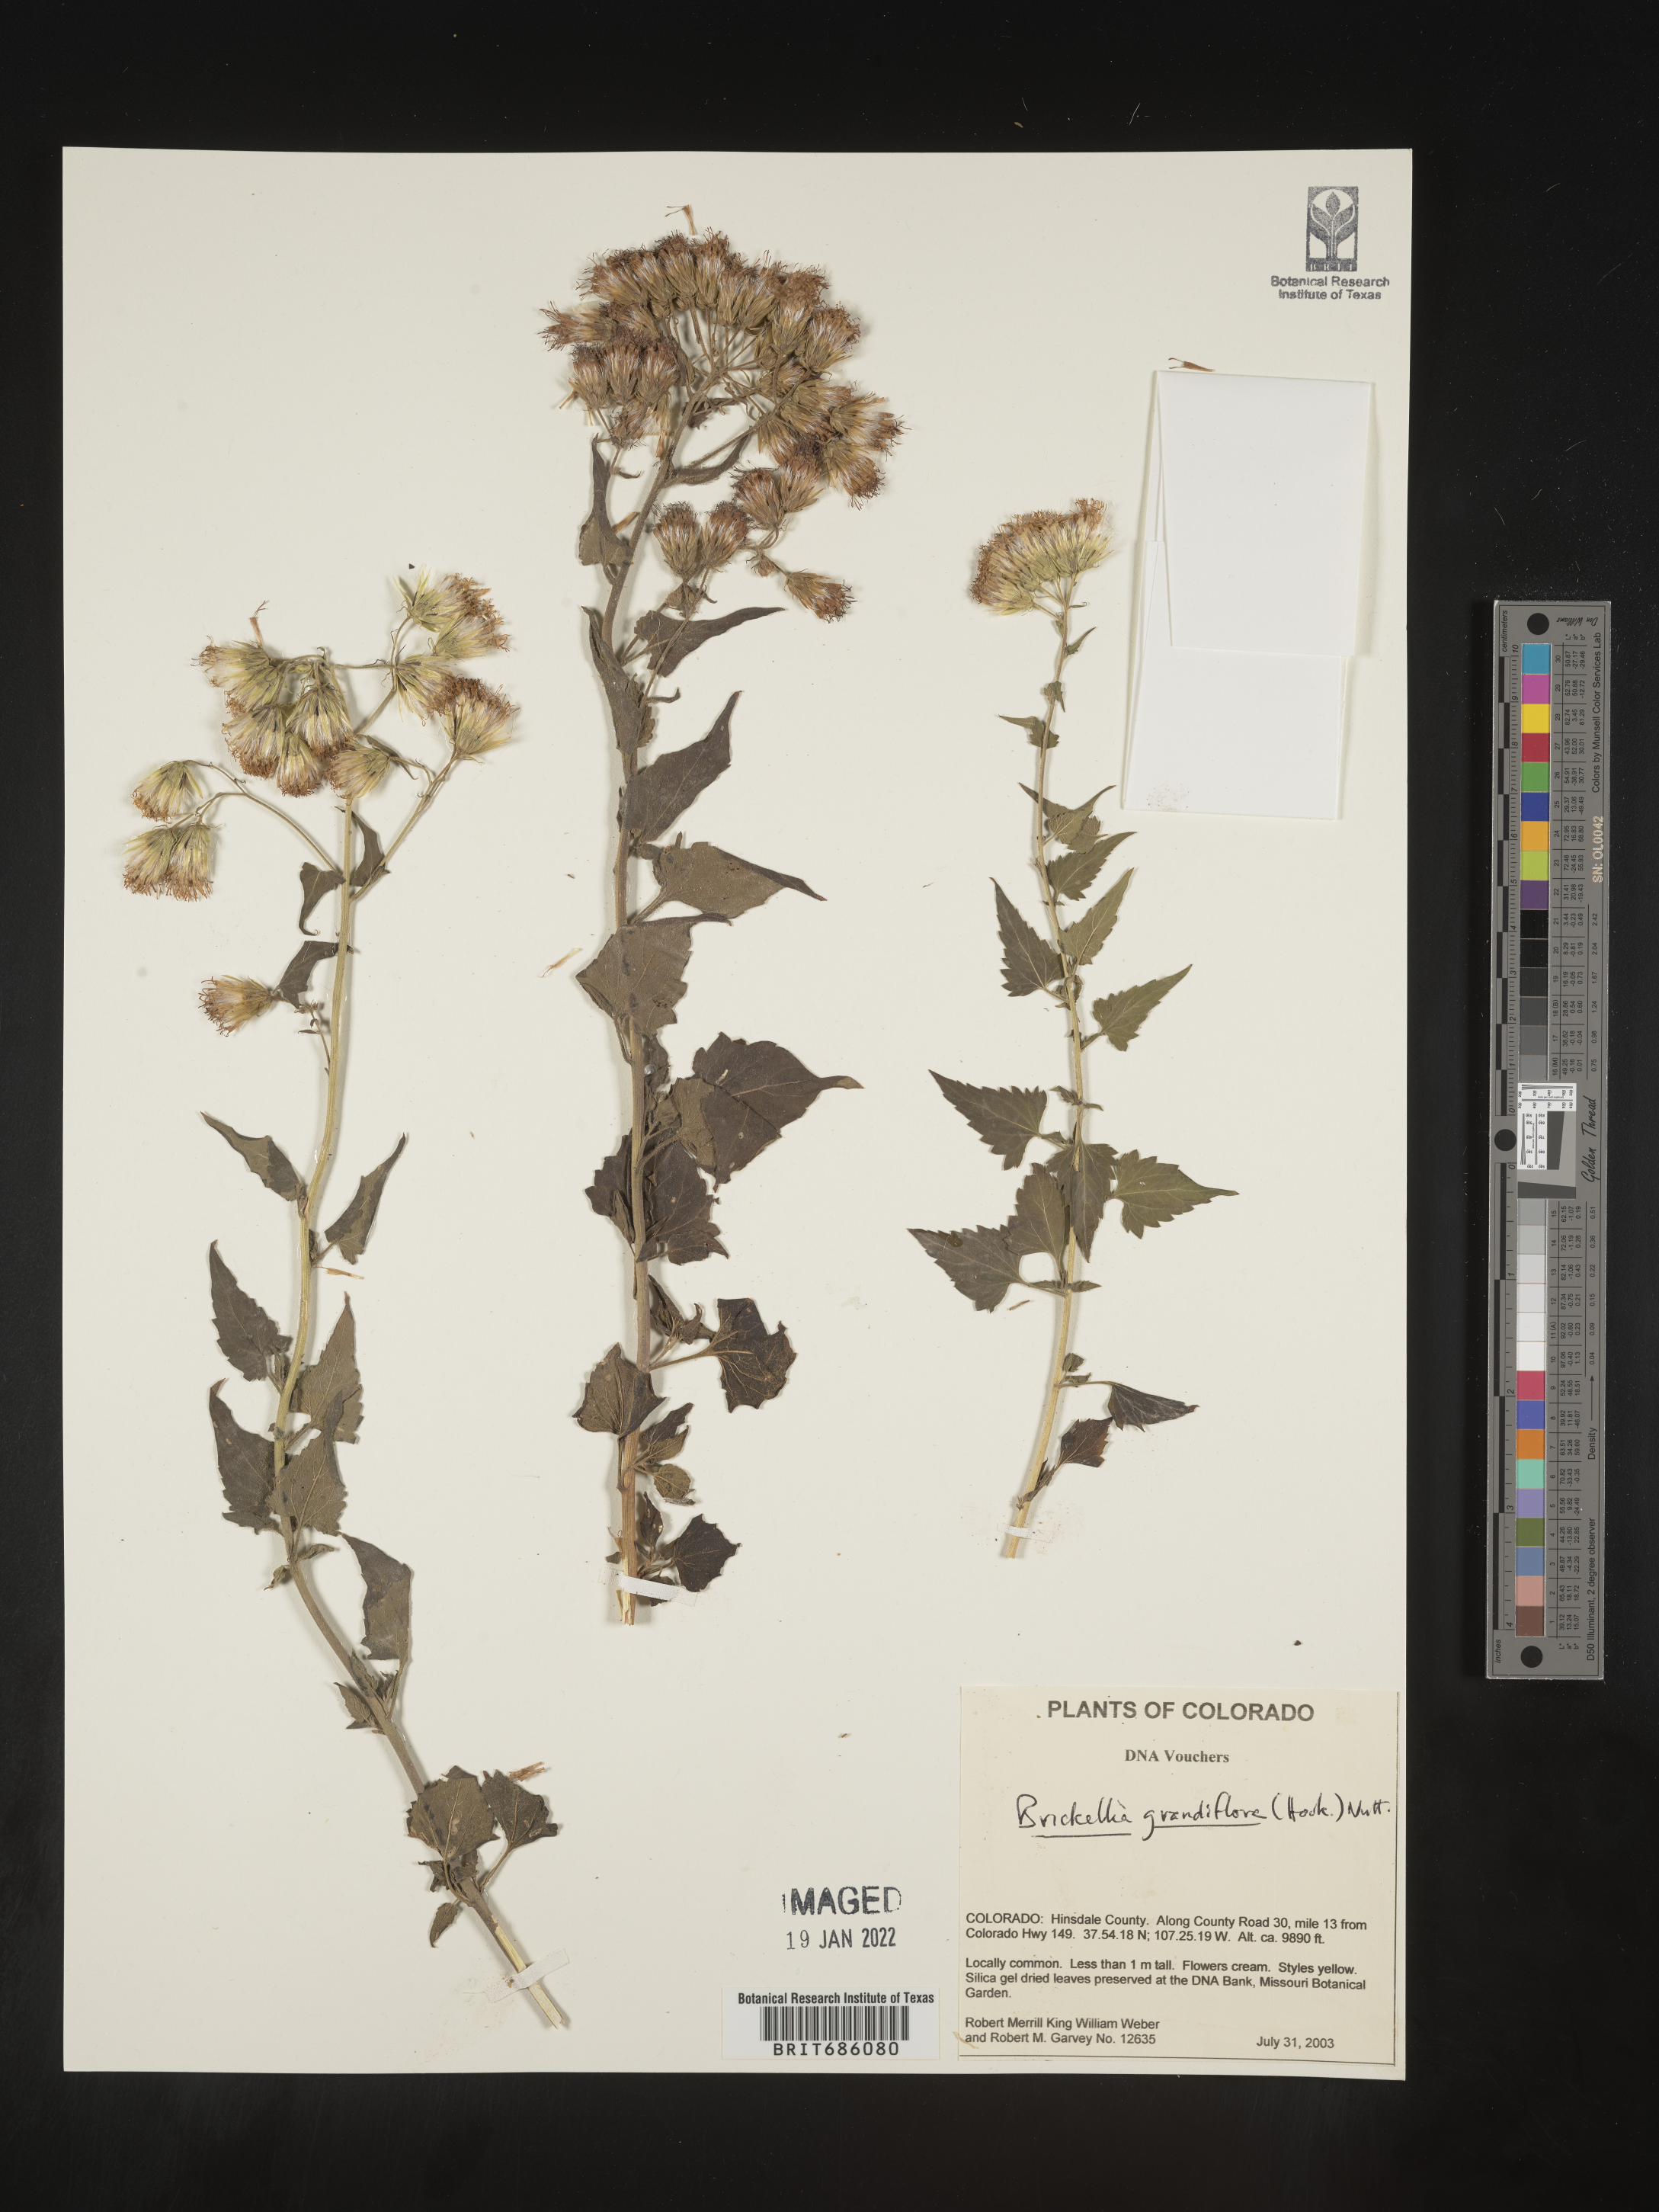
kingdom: Plantae
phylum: Tracheophyta
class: Magnoliopsida
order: Asterales
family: Asteraceae
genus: Brickellia
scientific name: Brickellia grandiflora
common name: Large-flowered brickellia
